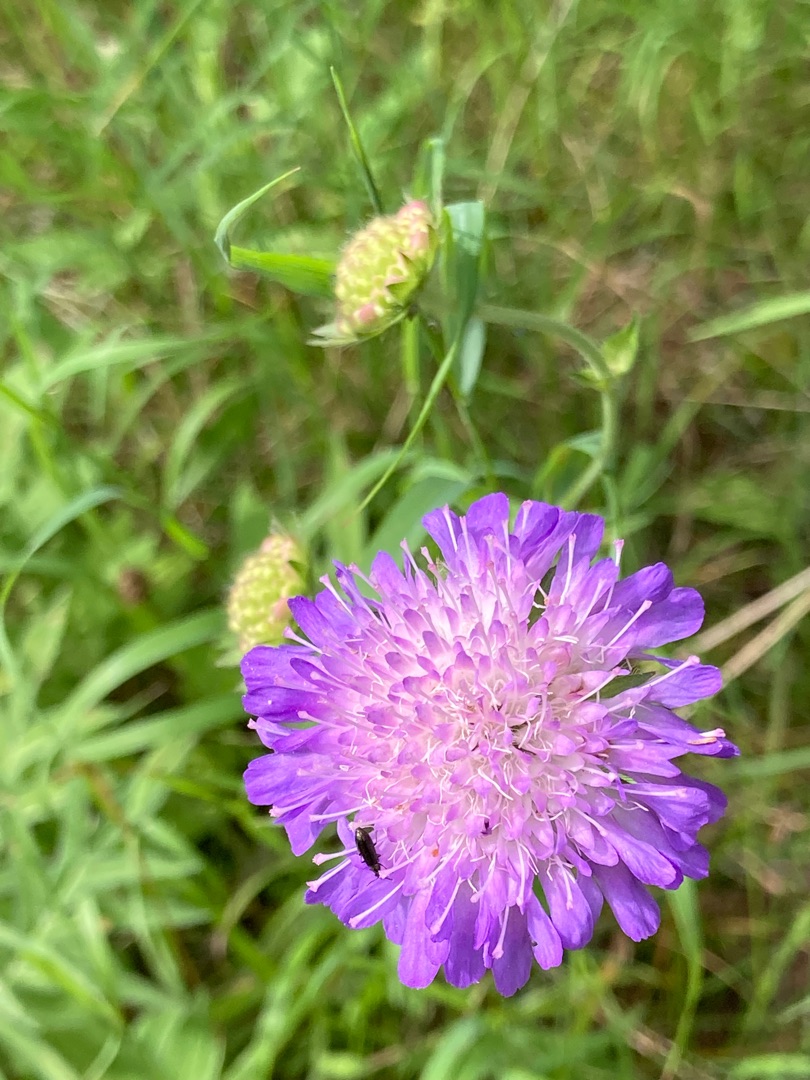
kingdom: Plantae
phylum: Tracheophyta
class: Magnoliopsida
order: Dipsacales
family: Caprifoliaceae
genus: Knautia
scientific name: Knautia arvensis
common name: Blåhat
